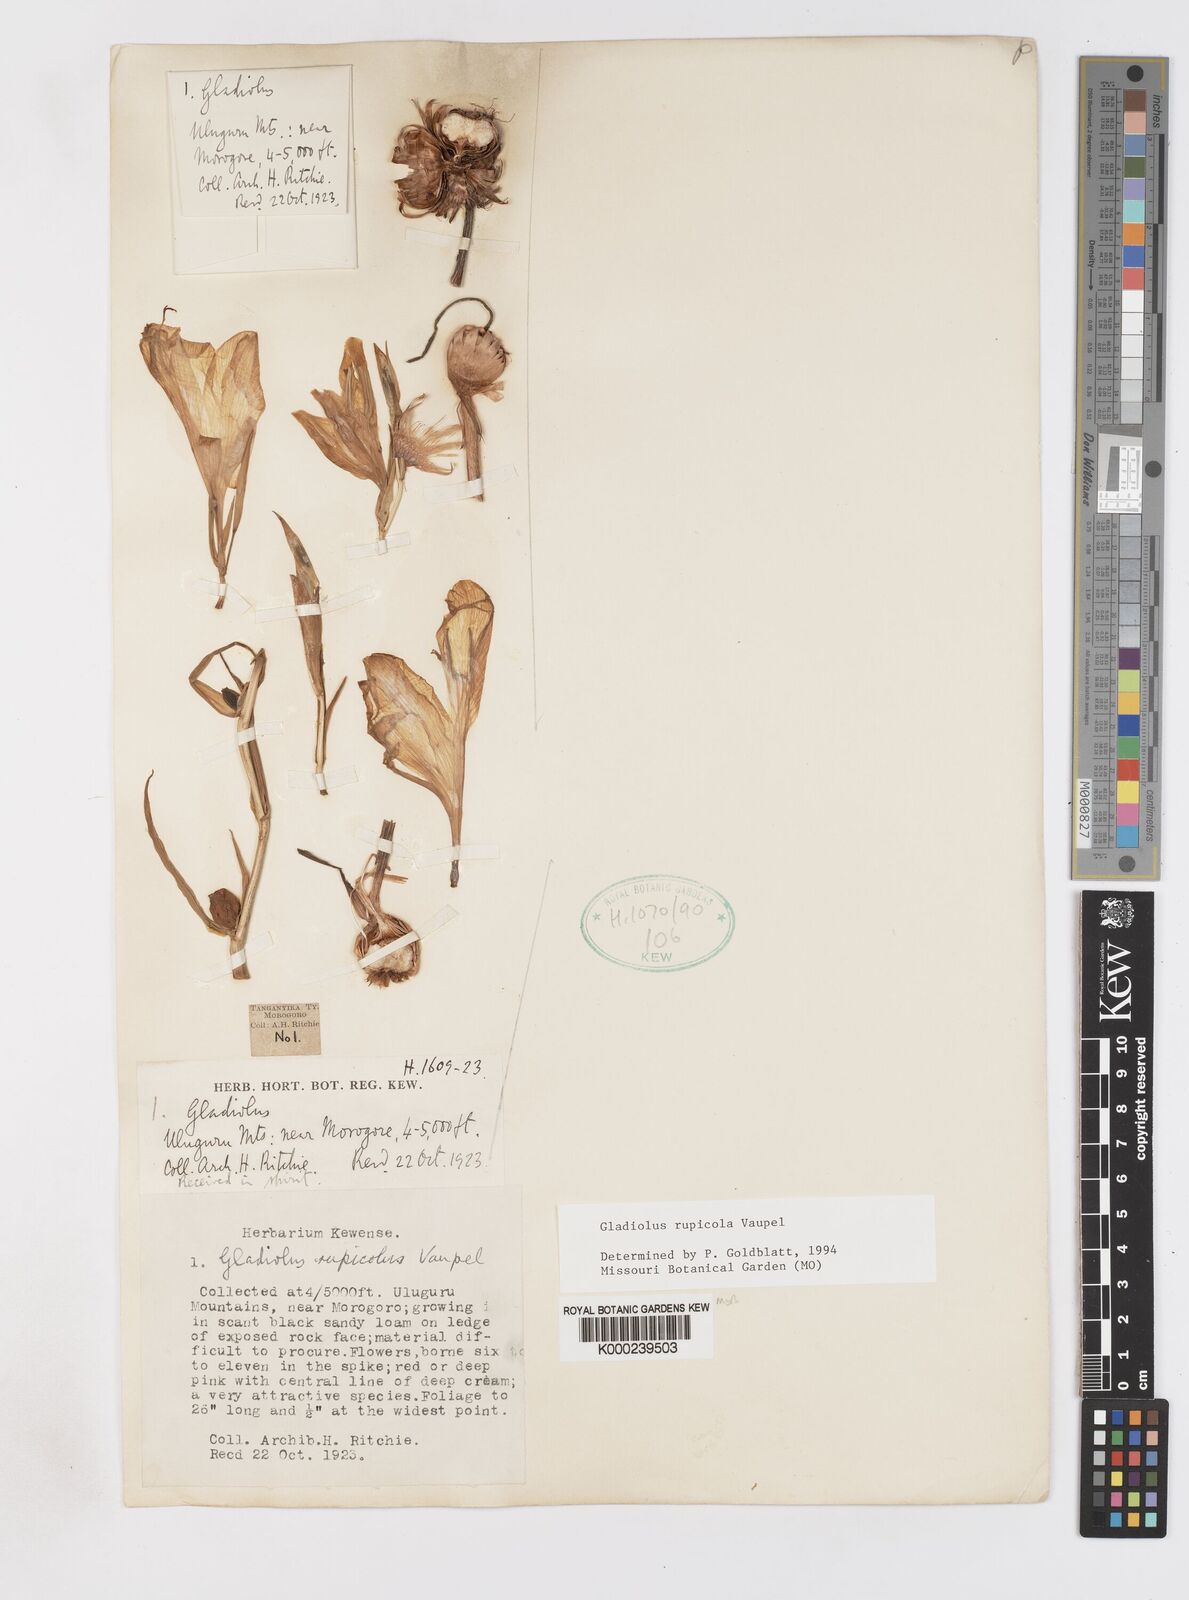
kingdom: Plantae
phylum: Tracheophyta
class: Liliopsida
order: Asparagales
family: Iridaceae
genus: Gladiolus
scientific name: Gladiolus rupicola
